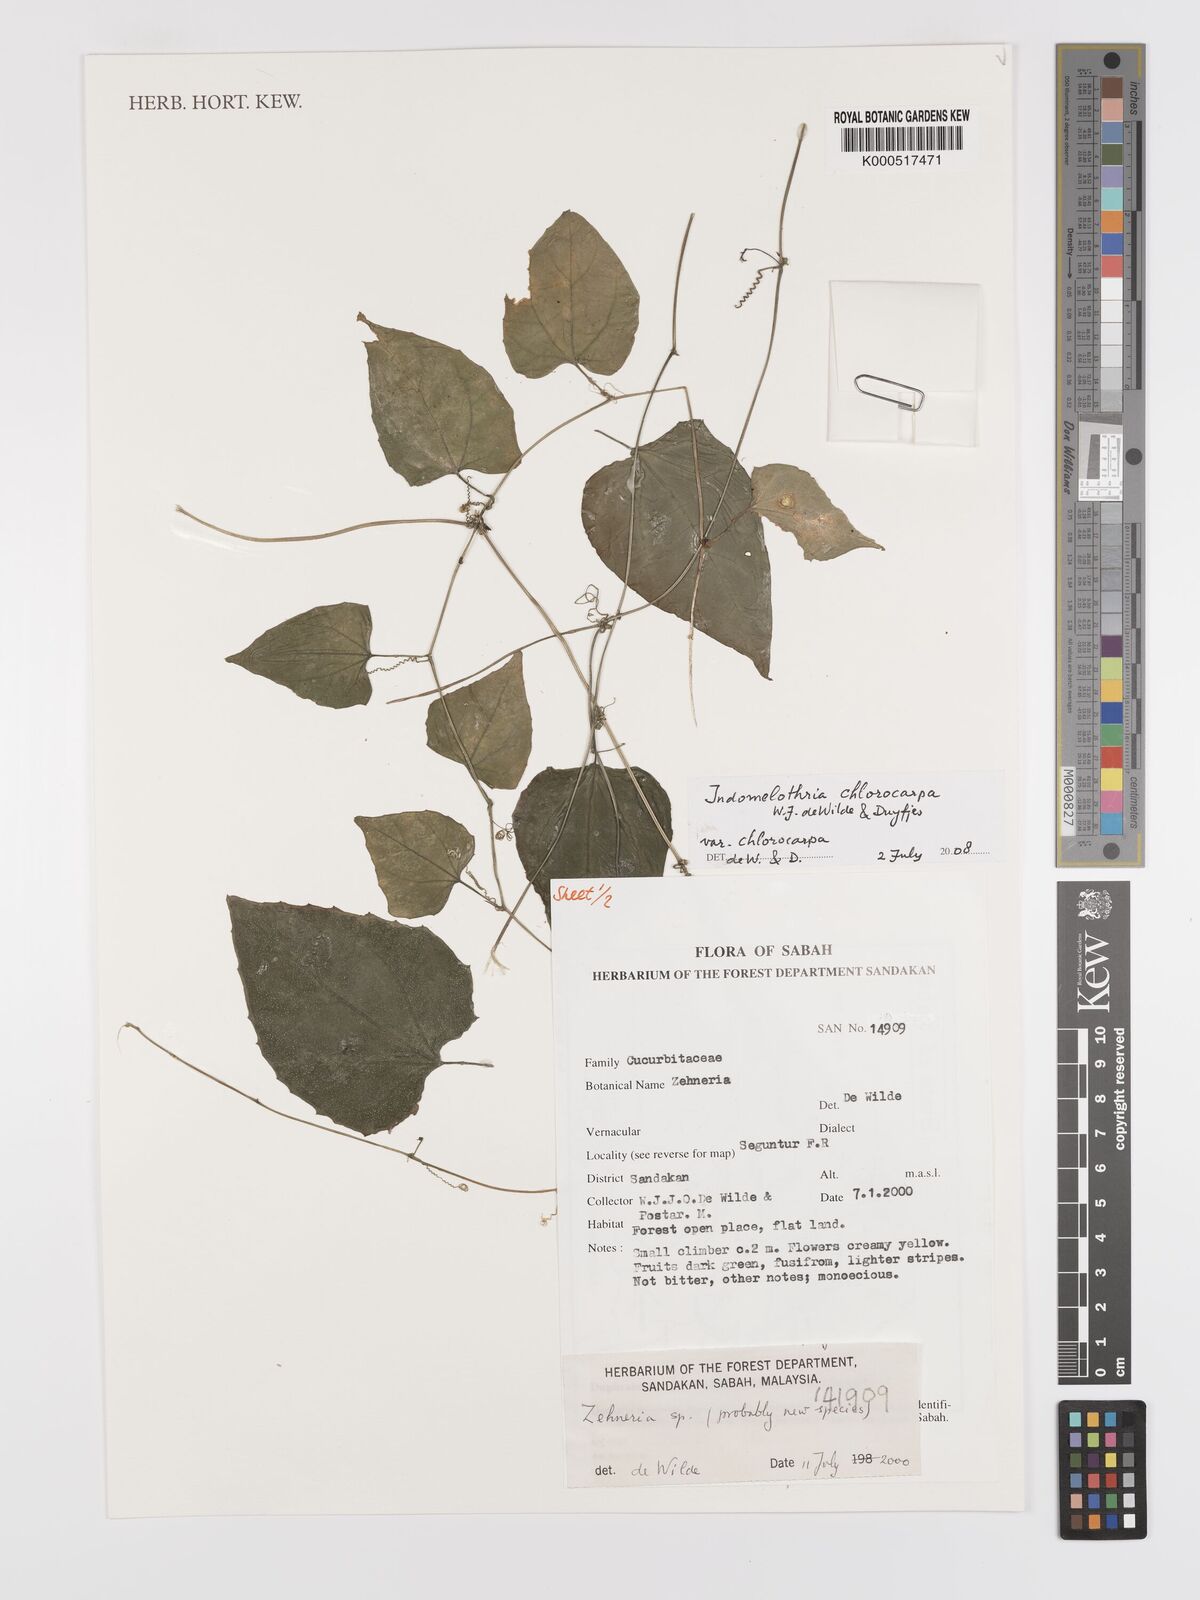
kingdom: Plantae
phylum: Tracheophyta
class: Magnoliopsida
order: Cucurbitales
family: Cucurbitaceae
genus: Indomelothria
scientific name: Indomelothria chlorocarpa
